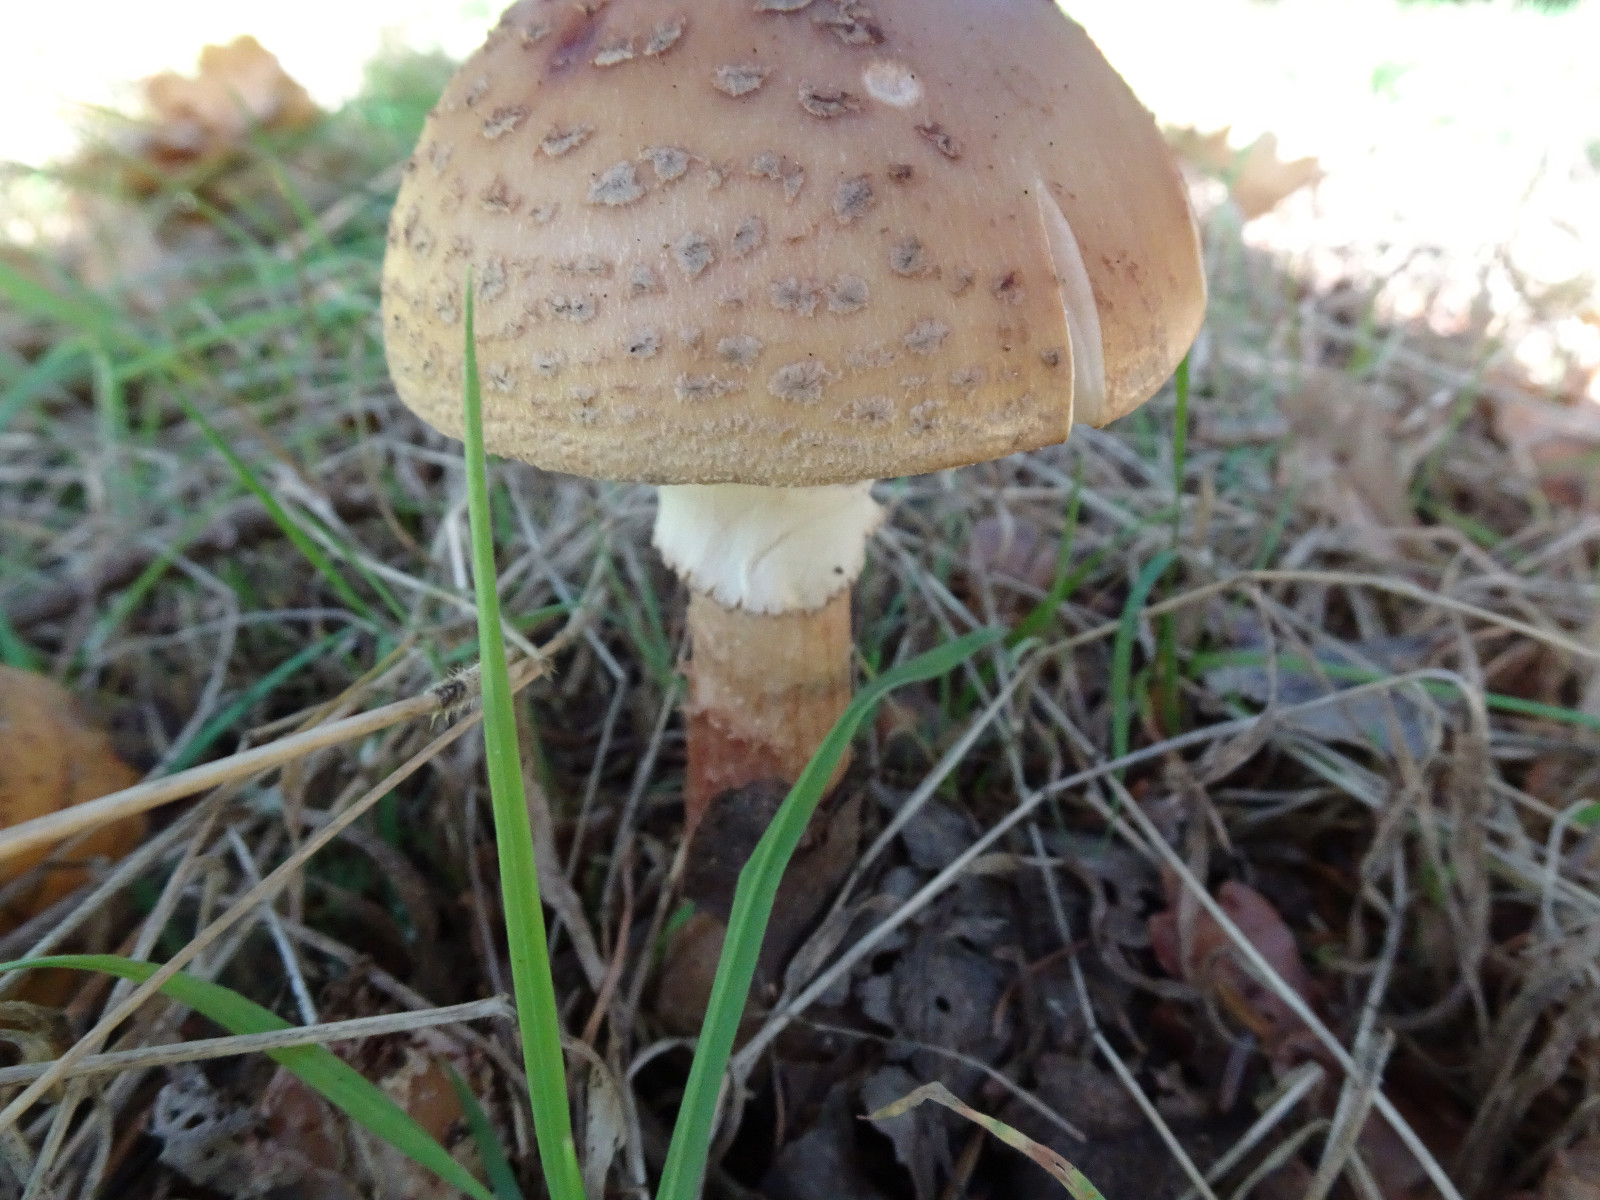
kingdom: Fungi
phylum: Basidiomycota
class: Agaricomycetes
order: Agaricales
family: Amanitaceae
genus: Amanita
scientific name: Amanita rubescens
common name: rødmende fluesvamp
